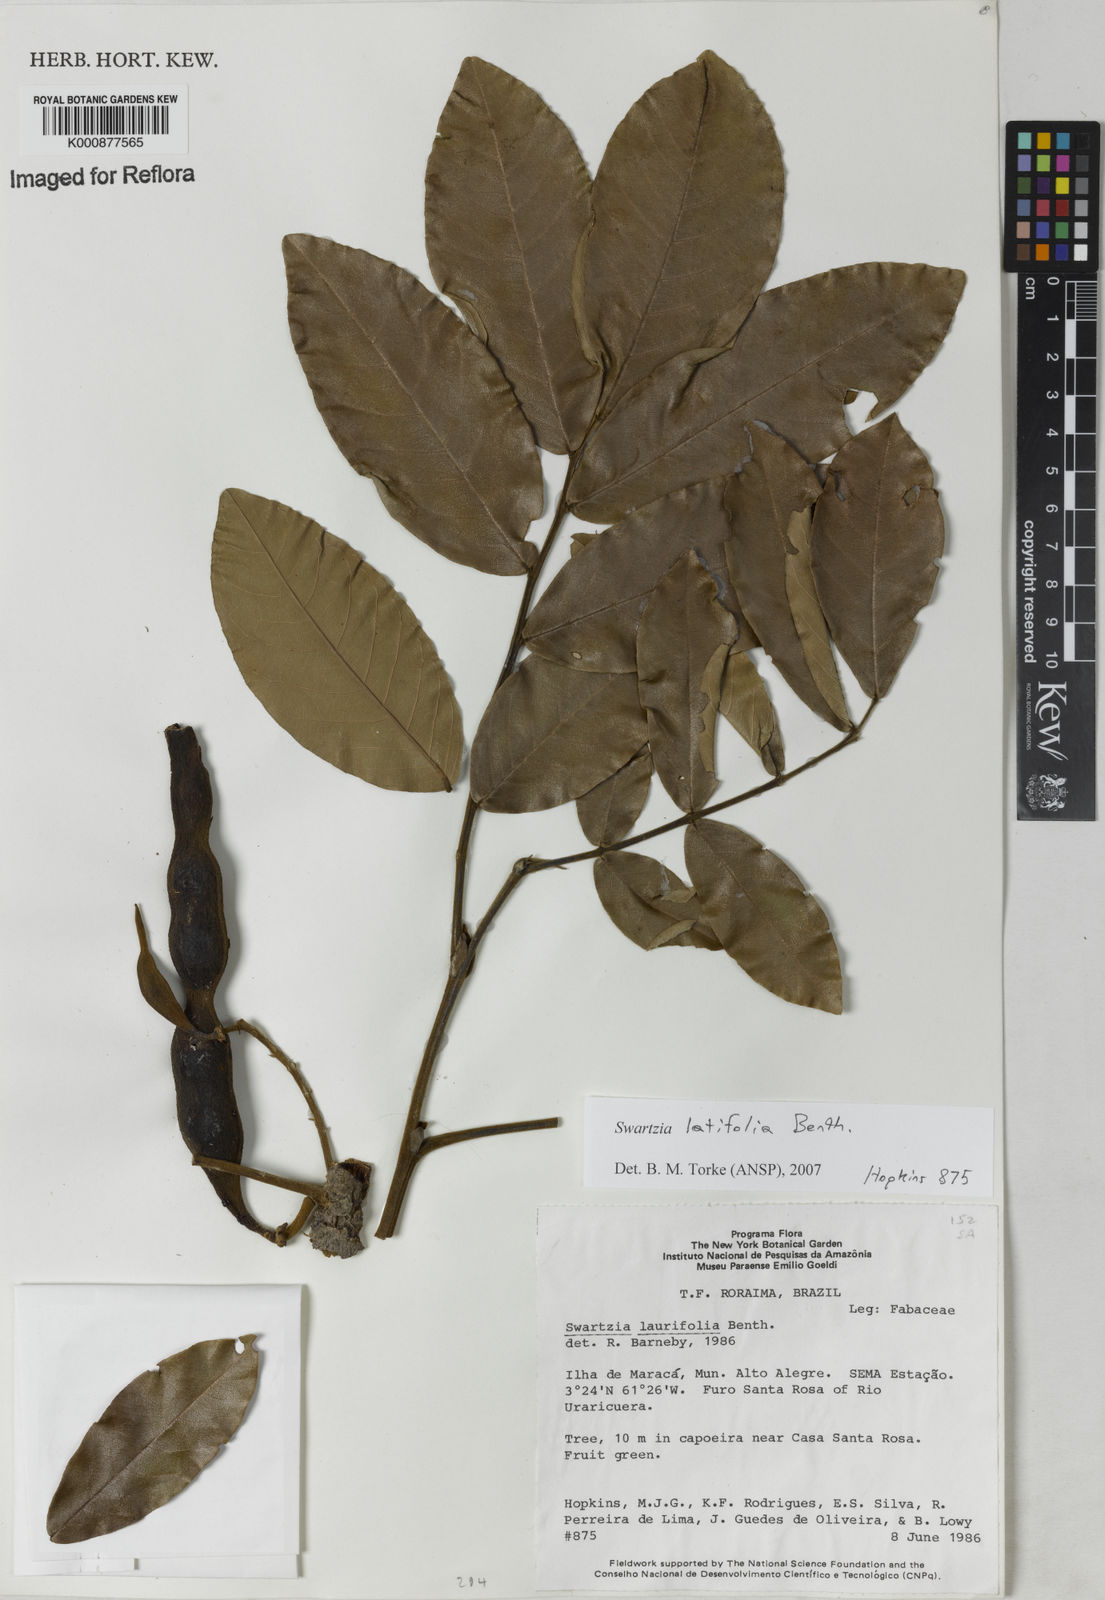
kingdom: Plantae
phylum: Tracheophyta
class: Magnoliopsida
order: Fabales
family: Fabaceae
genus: Swartzia
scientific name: Swartzia latifolia
